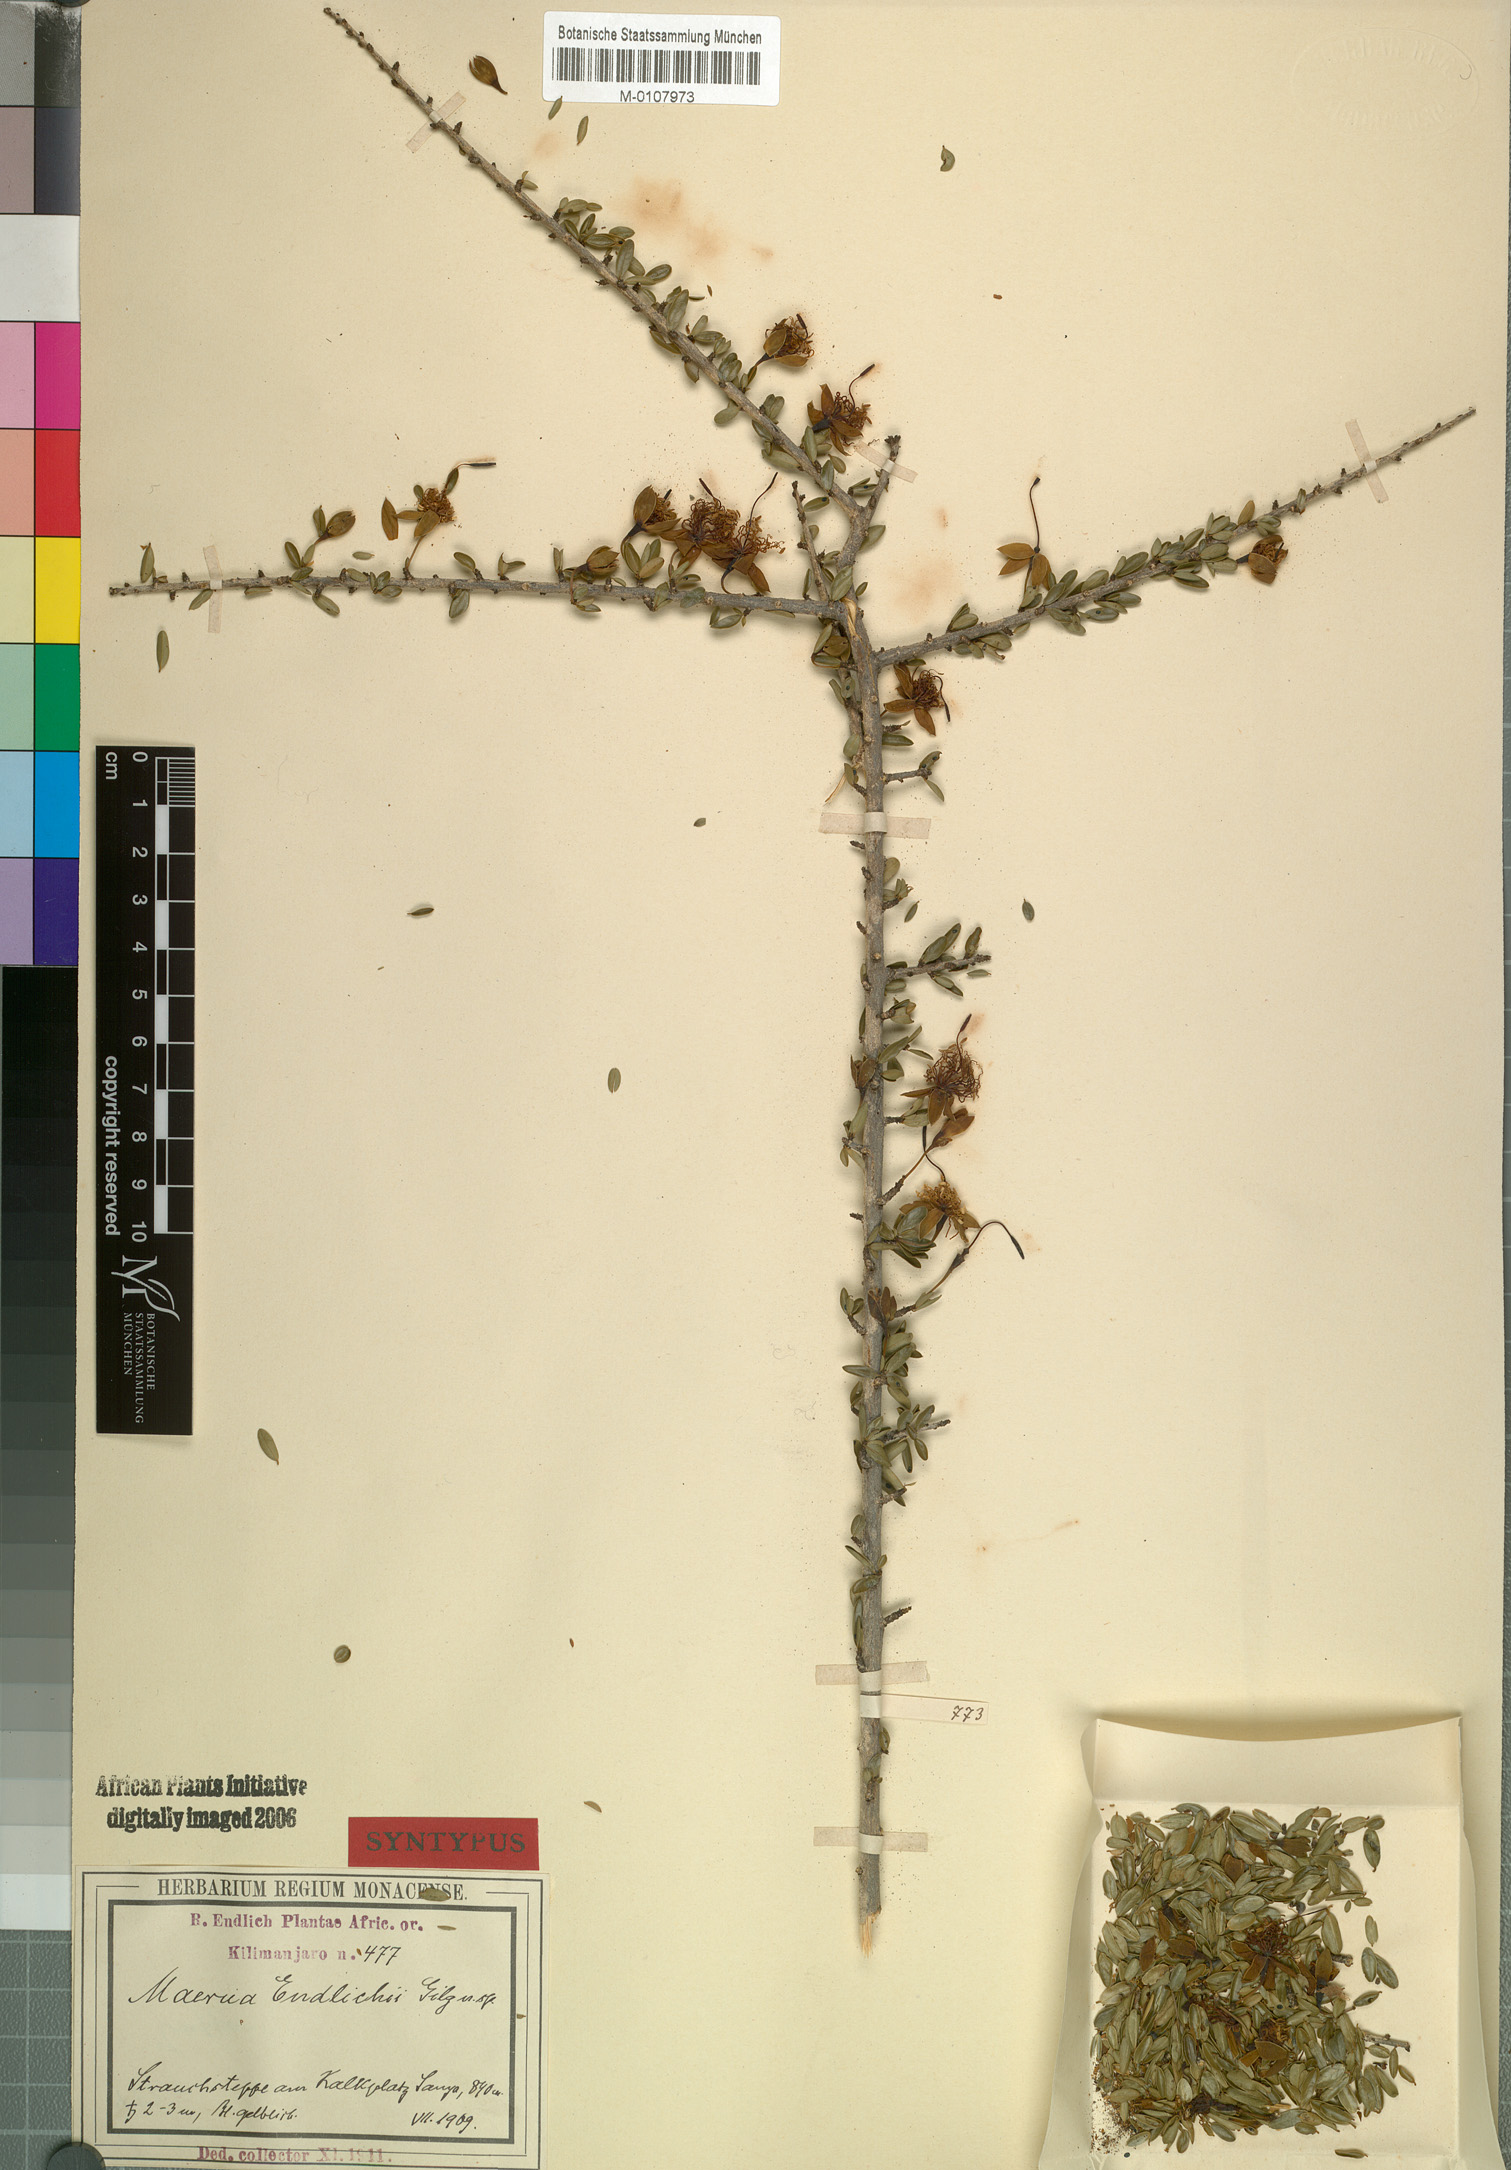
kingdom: Plantae
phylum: Tracheophyta
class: Magnoliopsida
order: Brassicales
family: Capparaceae
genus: Maerua
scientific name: Maerua endlichii
